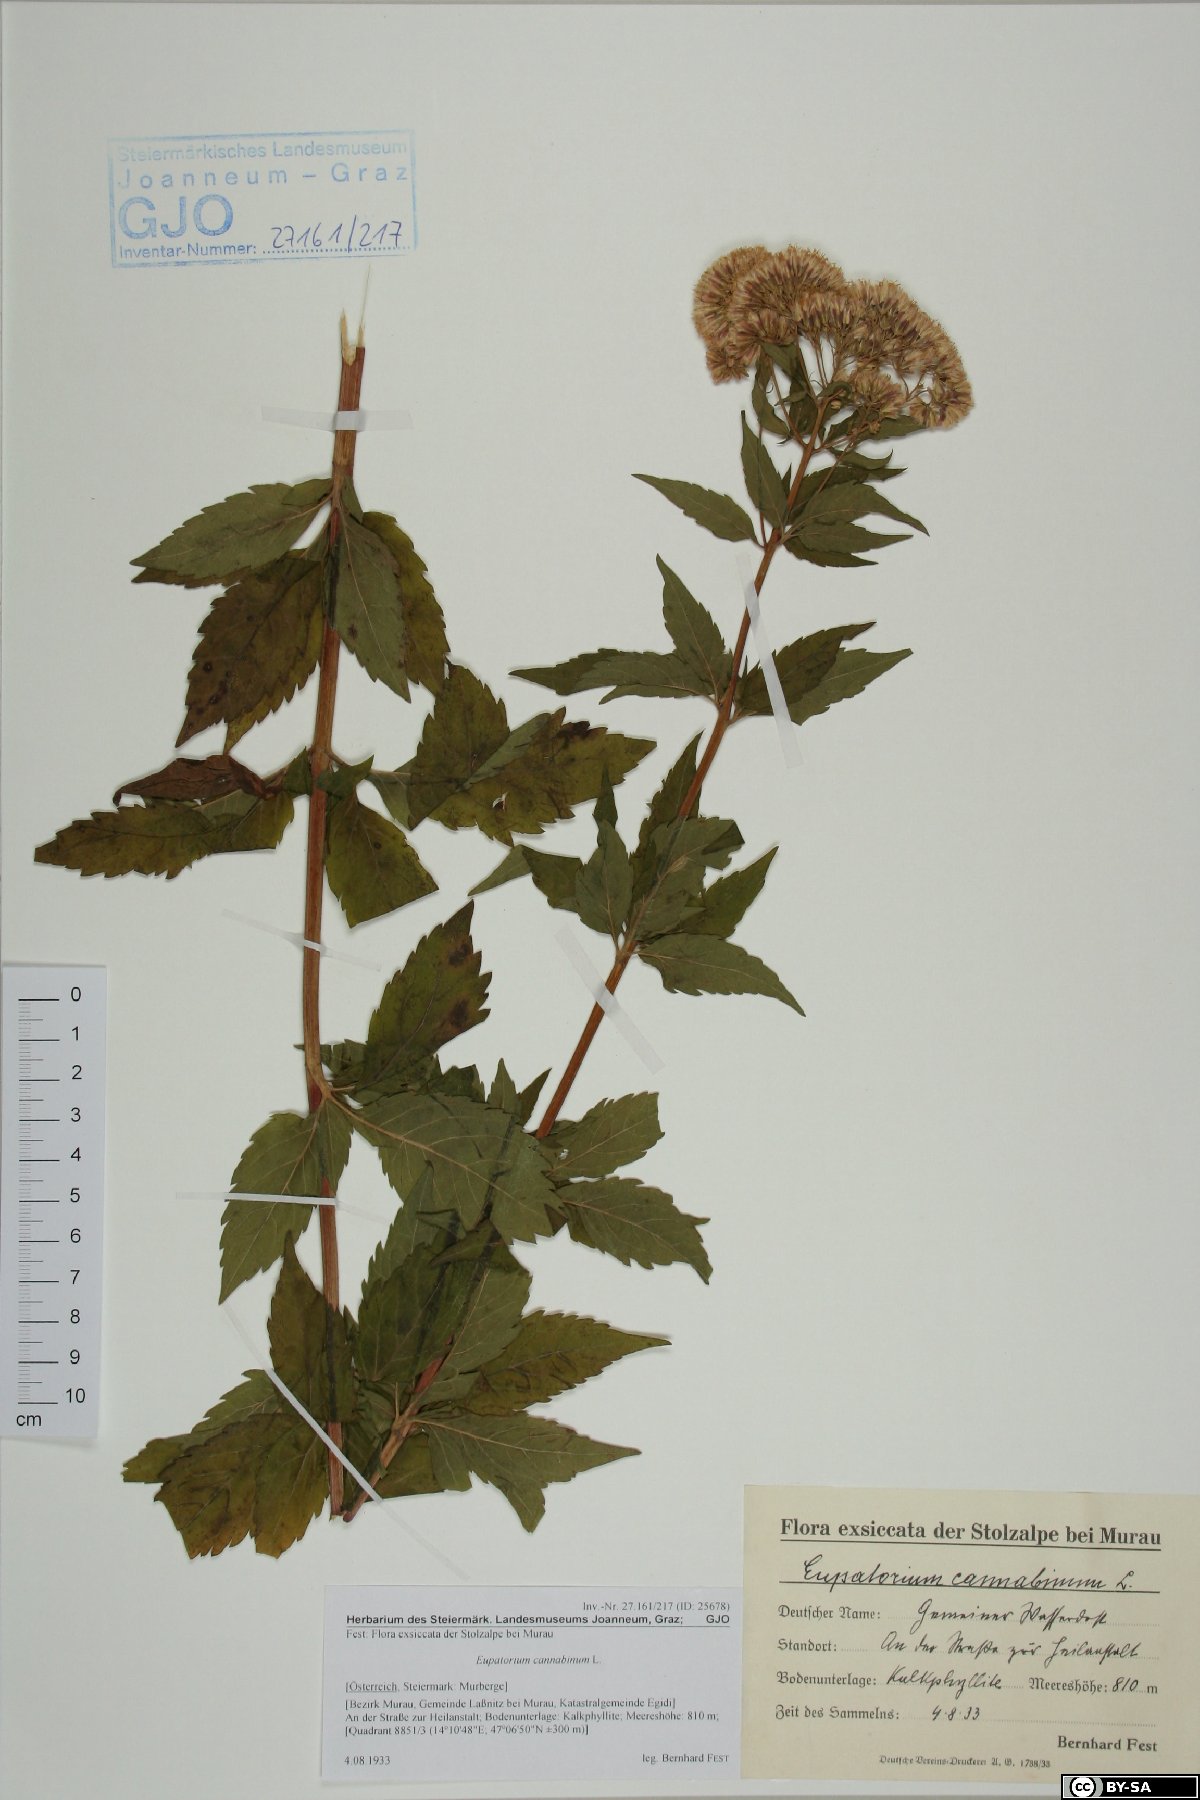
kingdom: Plantae
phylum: Tracheophyta
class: Magnoliopsida
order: Asterales
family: Asteraceae
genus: Eupatorium
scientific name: Eupatorium cannabinum
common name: Hemp-agrimony
